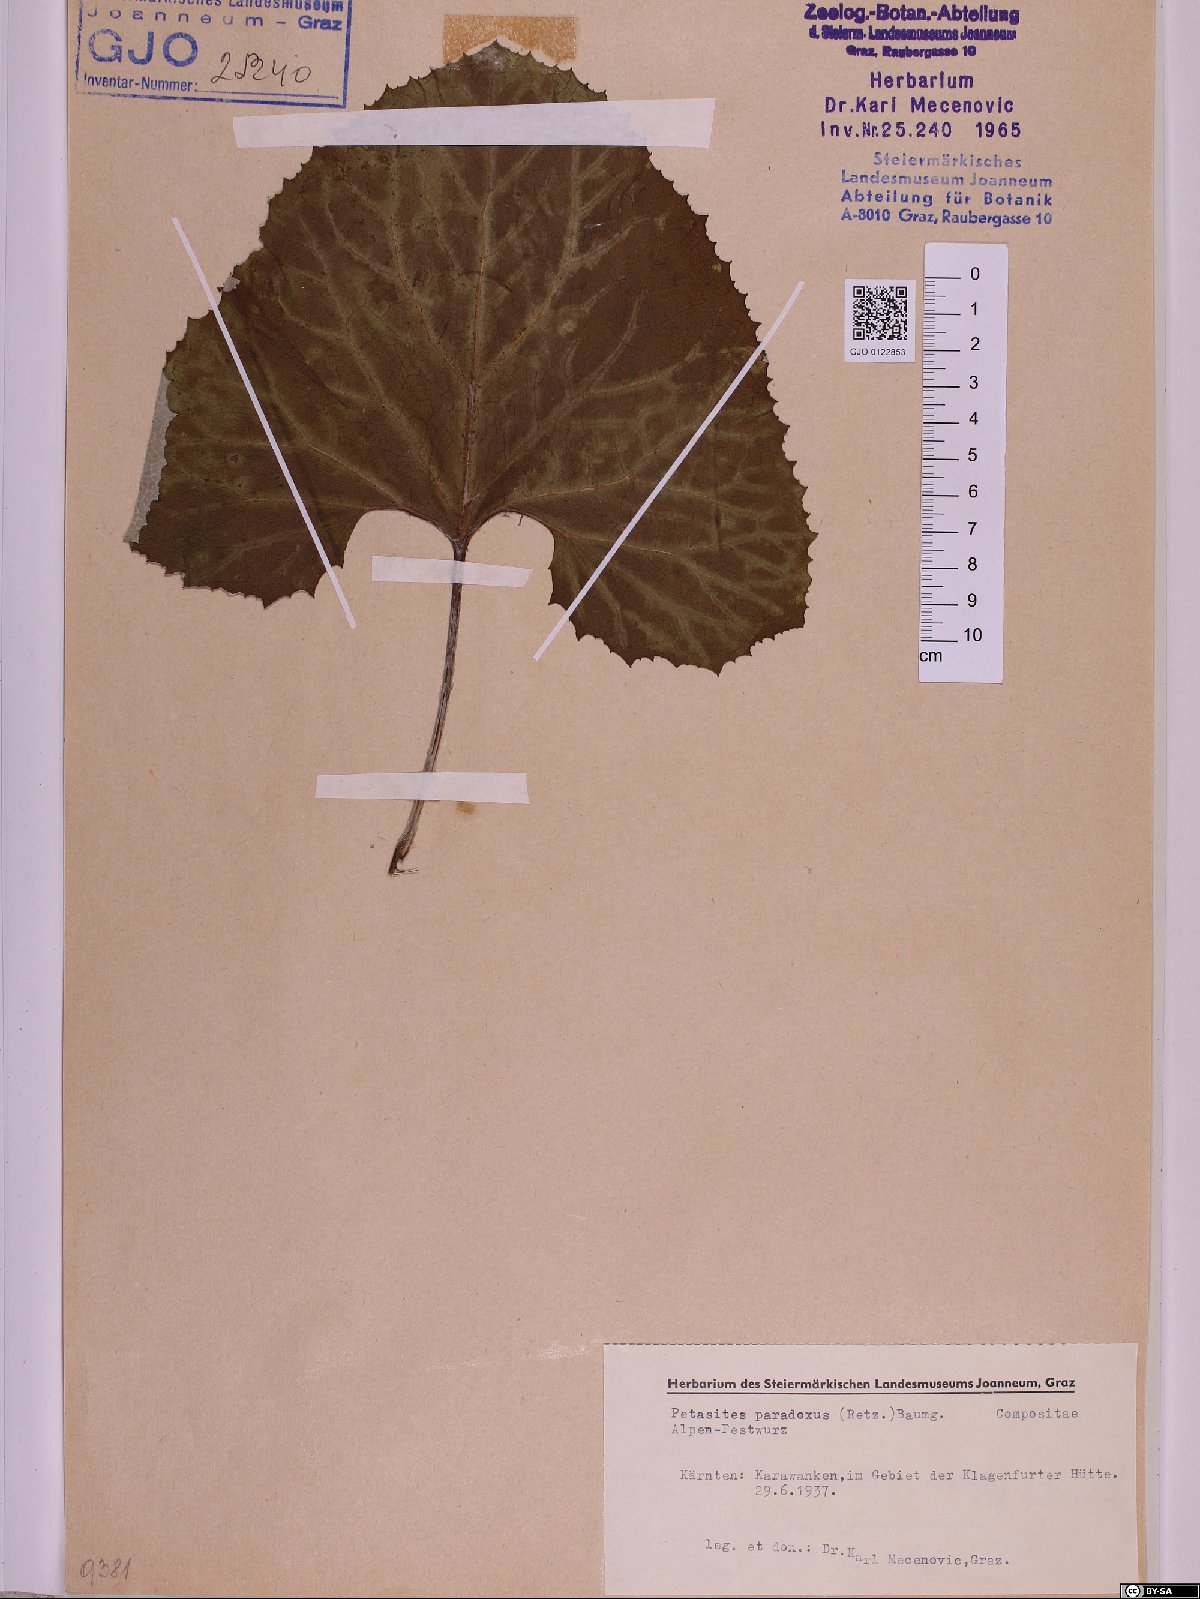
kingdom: Plantae
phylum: Tracheophyta
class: Magnoliopsida
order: Asterales
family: Asteraceae
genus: Petasites
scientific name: Petasites paradoxus
